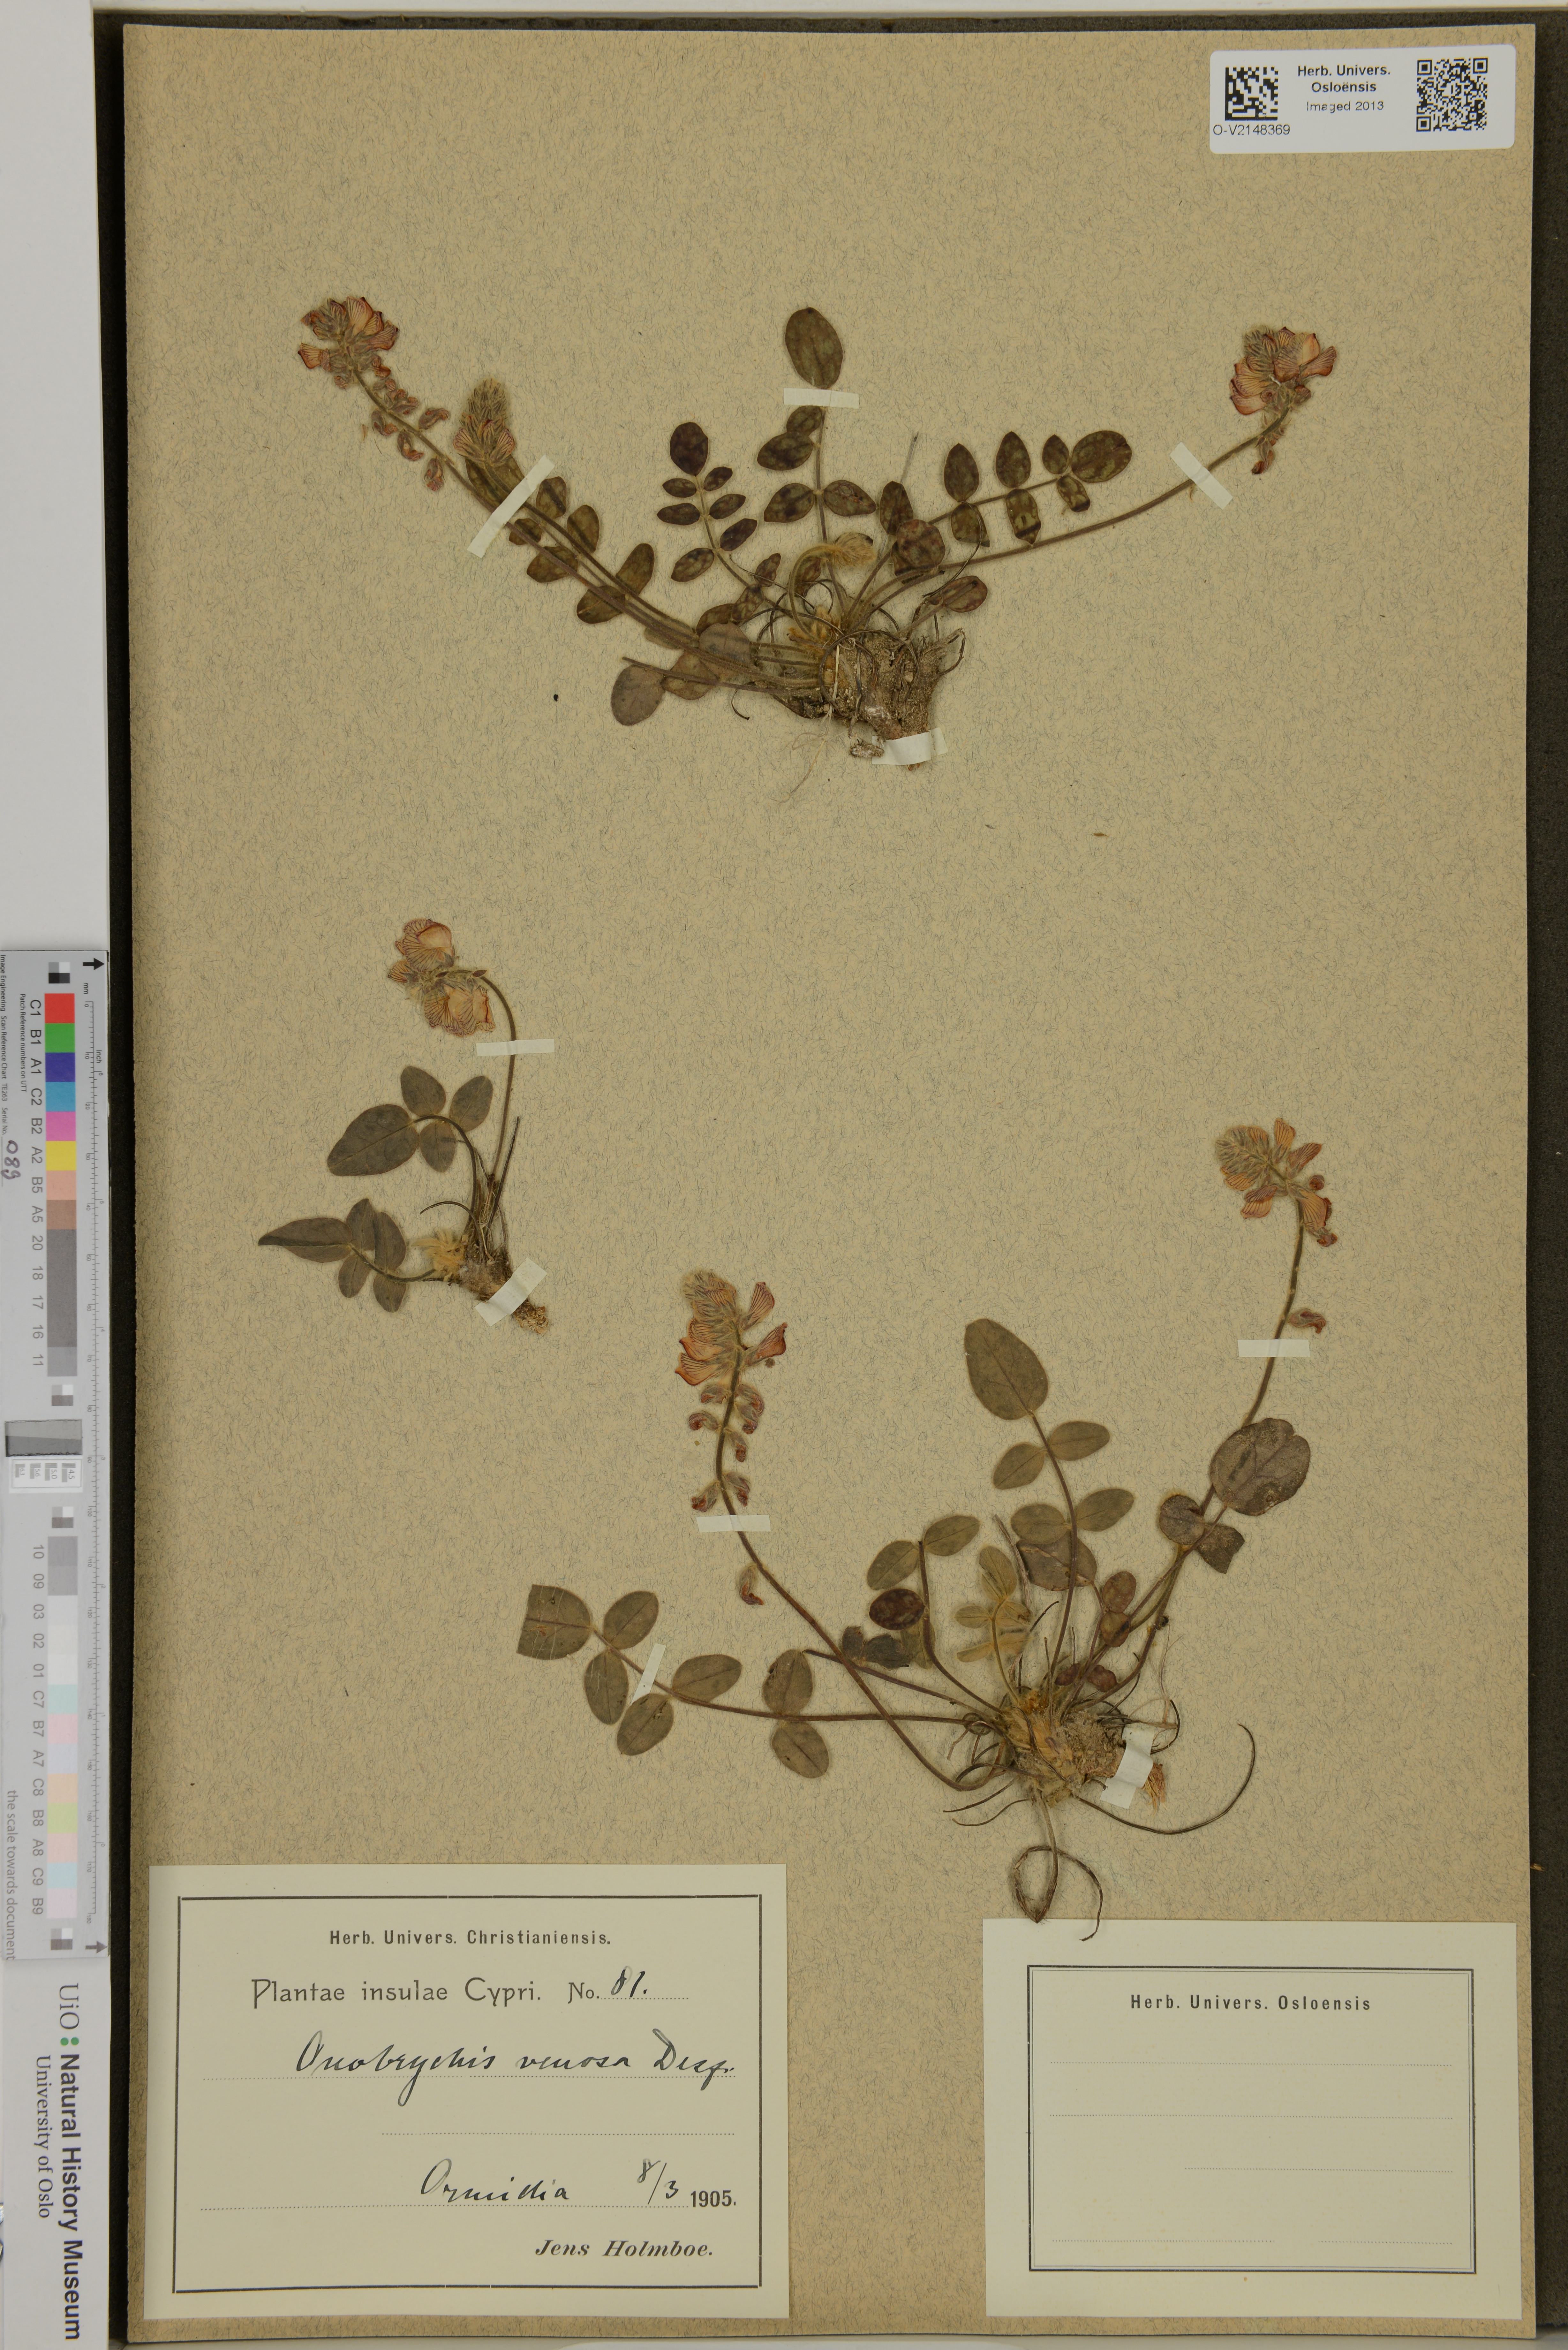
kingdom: Plantae
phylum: Tracheophyta
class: Magnoliopsida
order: Fabales
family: Fabaceae
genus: Onobrychis
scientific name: Onobrychis venosa
